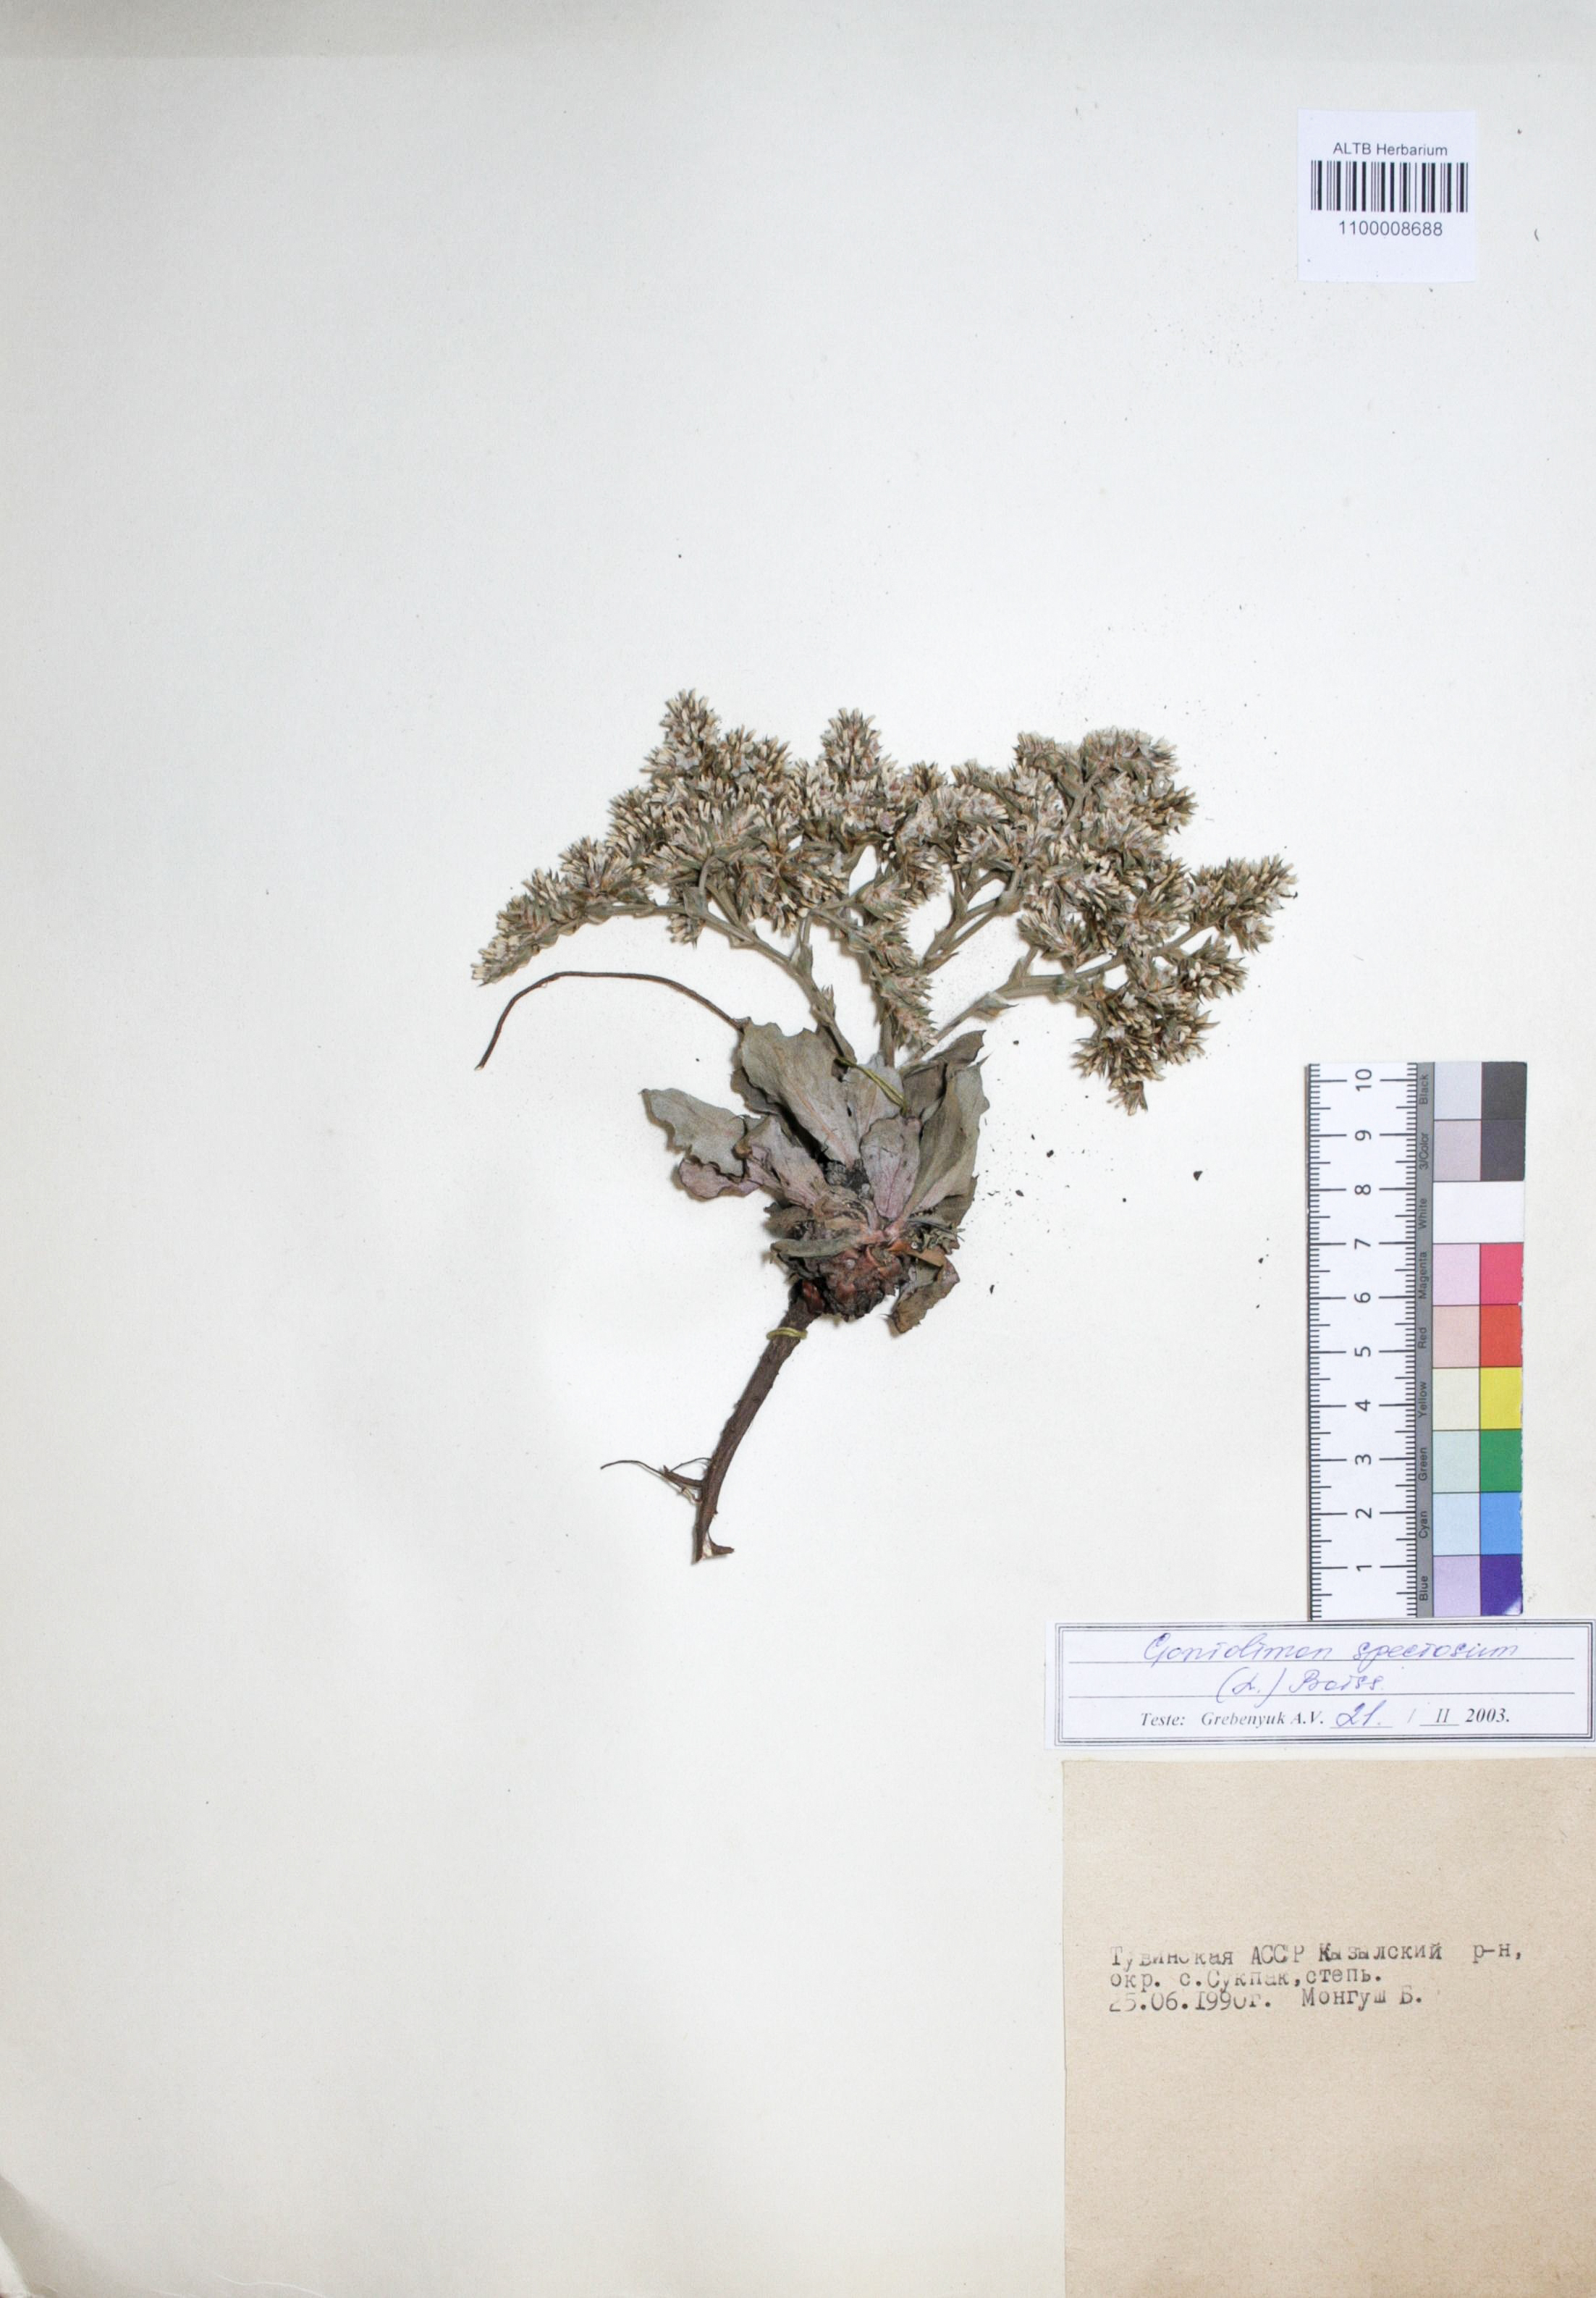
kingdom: Plantae
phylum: Tracheophyta
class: Magnoliopsida
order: Caryophyllales
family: Plumbaginaceae
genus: Goniolimon
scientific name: Goniolimon speciosum
